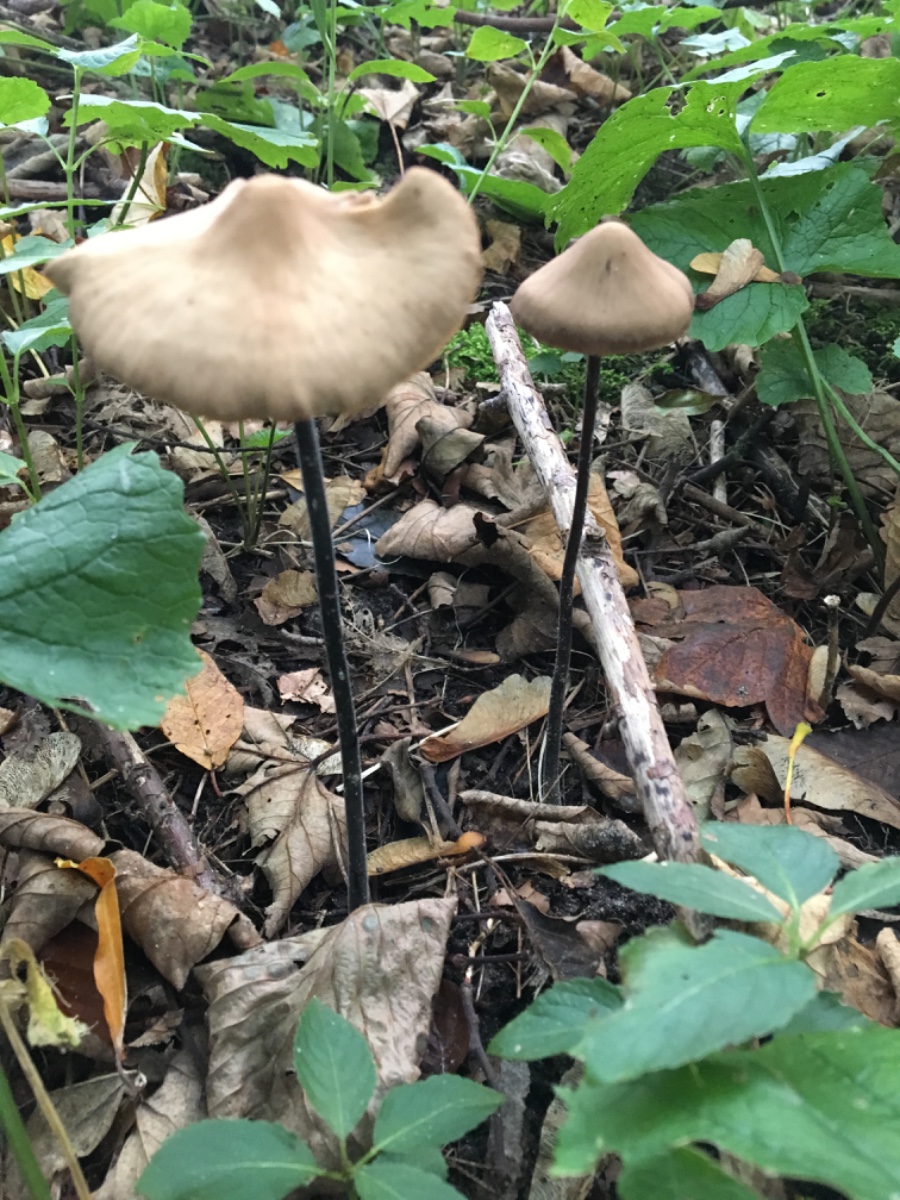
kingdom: Fungi
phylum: Basidiomycota
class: Agaricomycetes
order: Agaricales
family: Omphalotaceae
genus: Mycetinis
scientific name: Mycetinis alliaceus
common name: stor løghat
